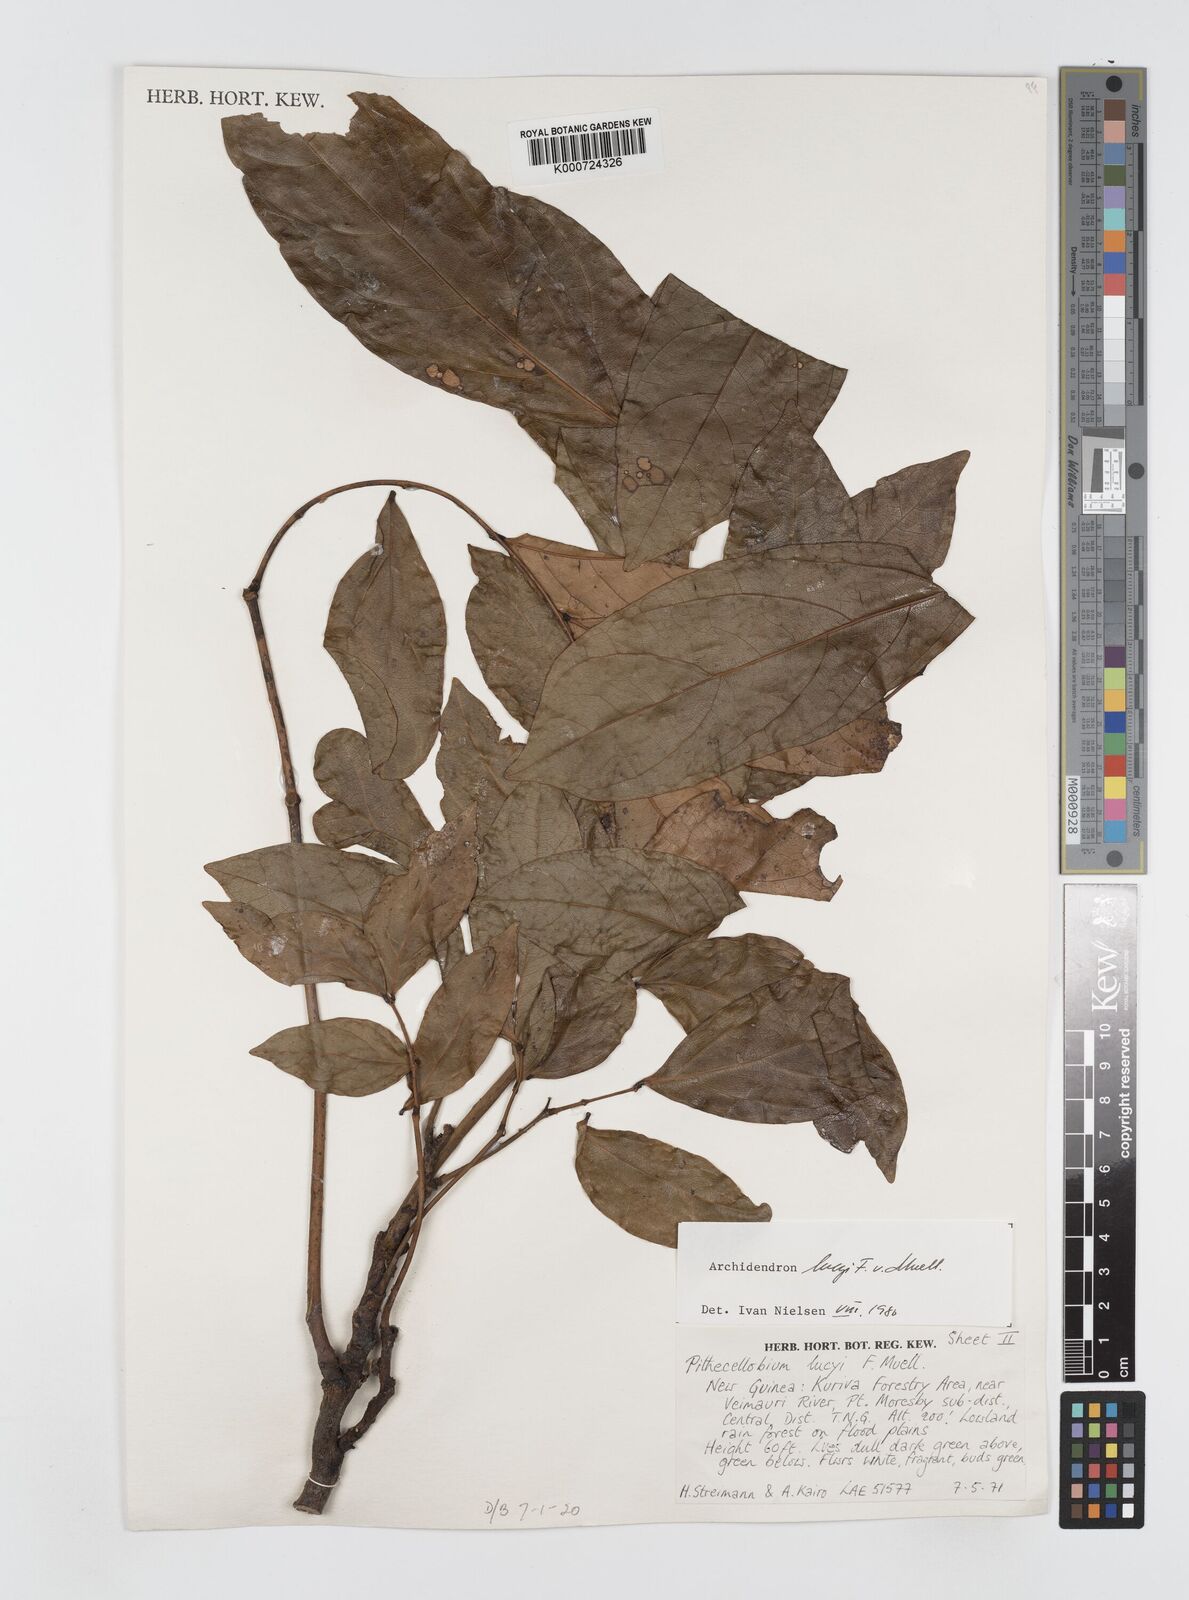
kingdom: Plantae
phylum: Tracheophyta
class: Magnoliopsida
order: Fabales
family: Fabaceae
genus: Archidendron
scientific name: Archidendron lucyi
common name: Scarlet bean
